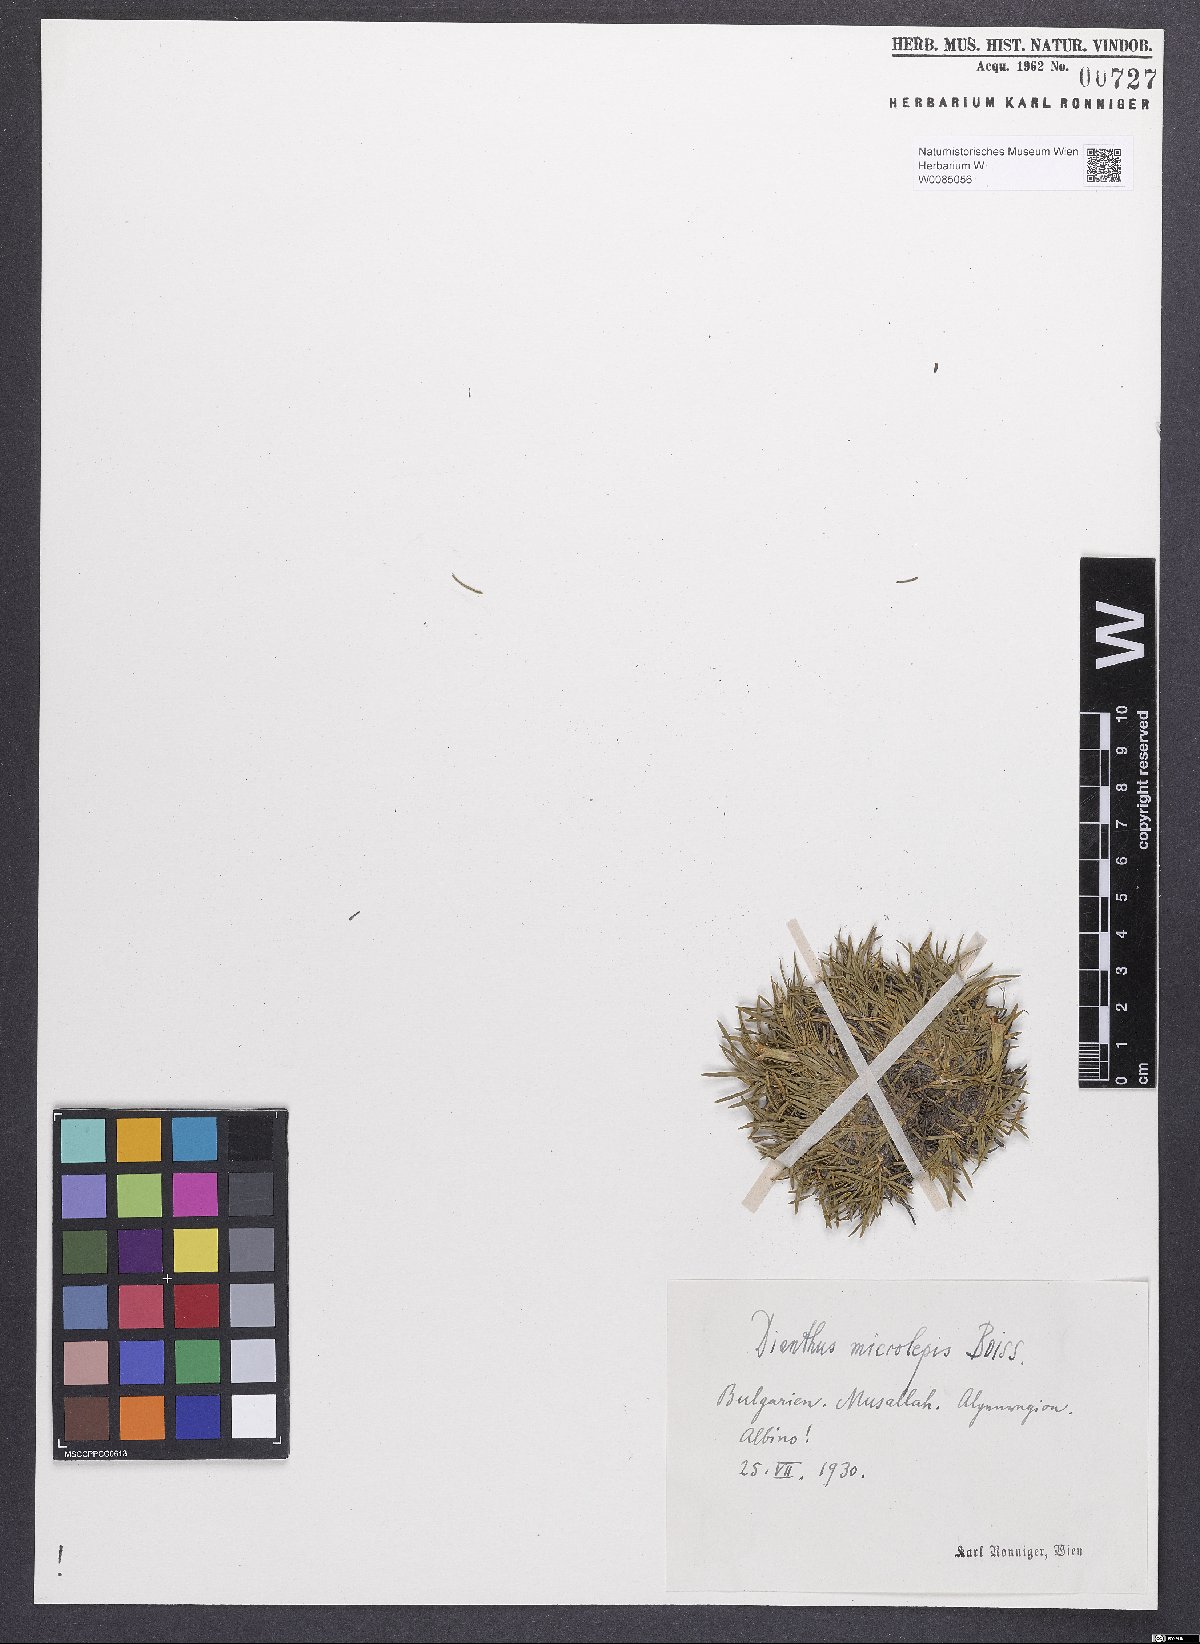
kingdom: Plantae
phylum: Tracheophyta
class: Magnoliopsida
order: Caryophyllales
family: Caryophyllaceae
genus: Dianthus
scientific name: Dianthus microlepis
